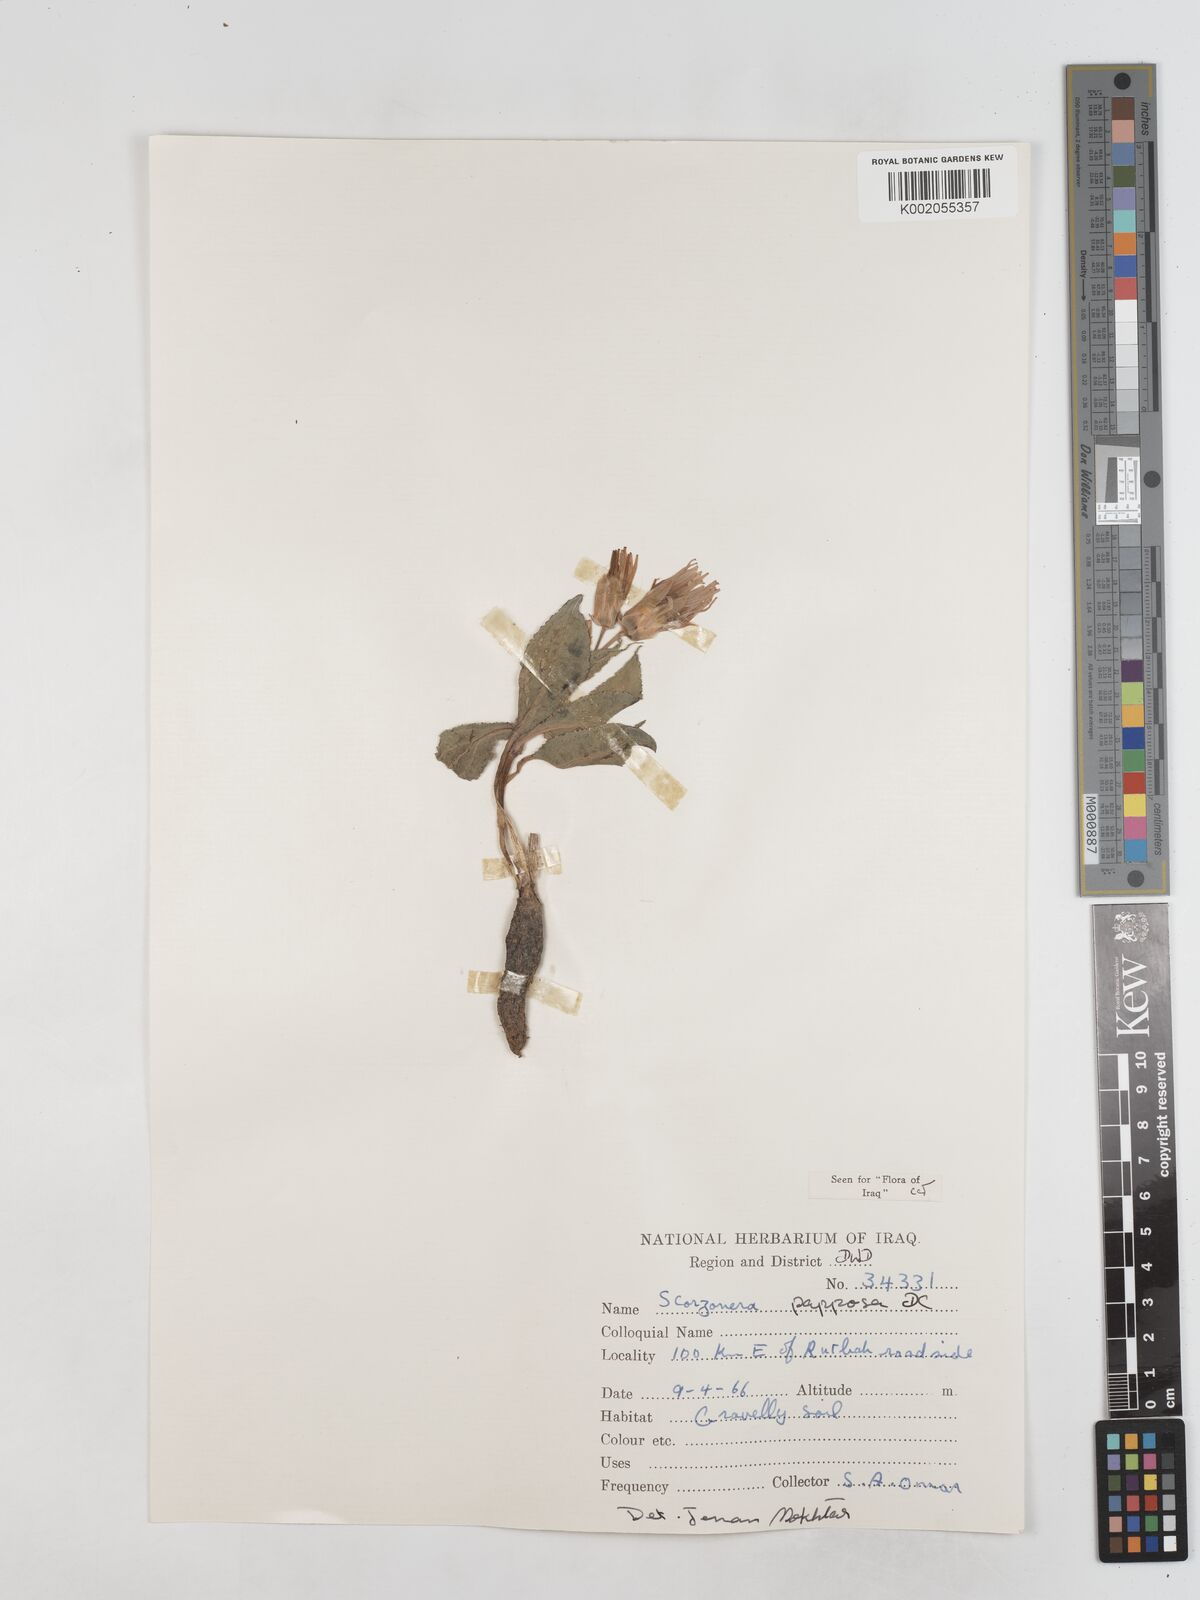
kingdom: Plantae
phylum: Tracheophyta
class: Magnoliopsida
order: Asterales
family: Asteraceae
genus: Pseudopodospermum
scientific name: Pseudopodospermum papposum
